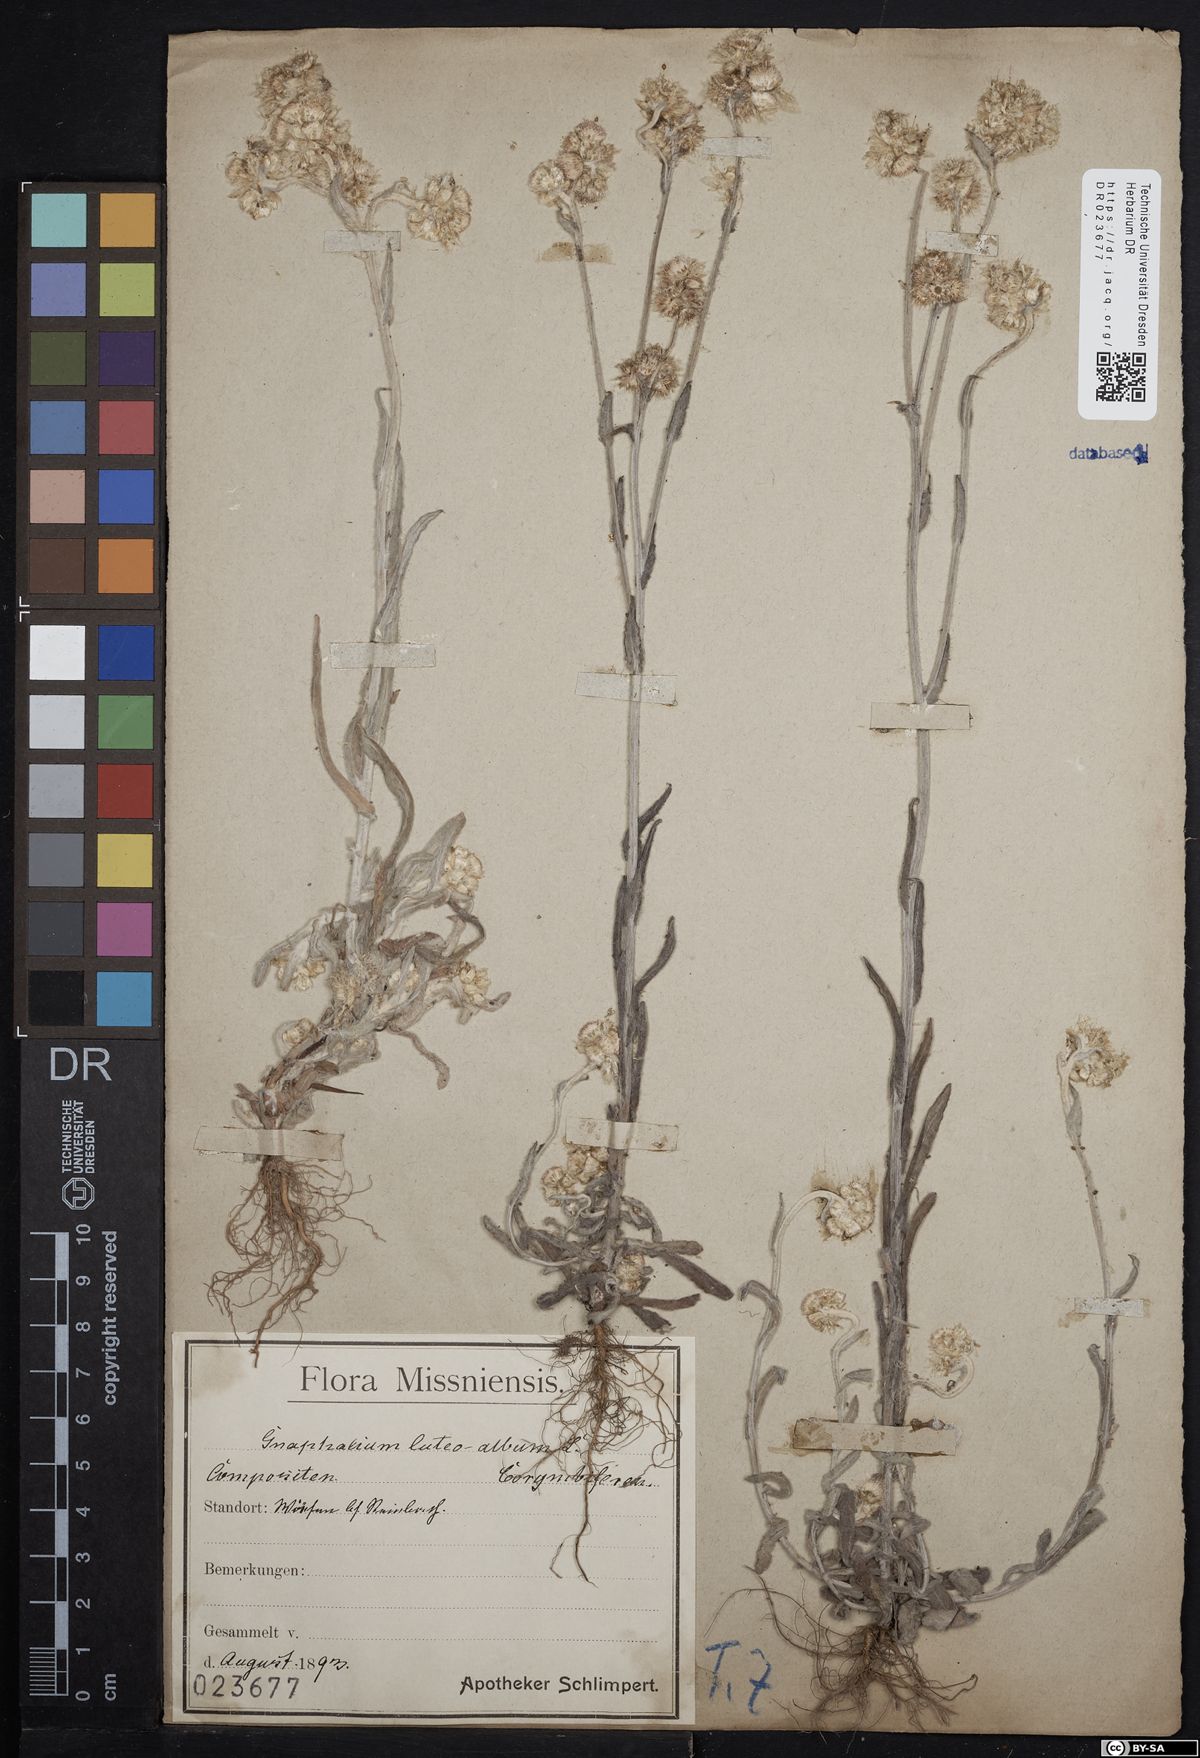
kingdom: Plantae
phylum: Tracheophyta
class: Magnoliopsida
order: Asterales
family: Asteraceae
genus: Helichrysum
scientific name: Helichrysum luteoalbum
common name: Daisy
